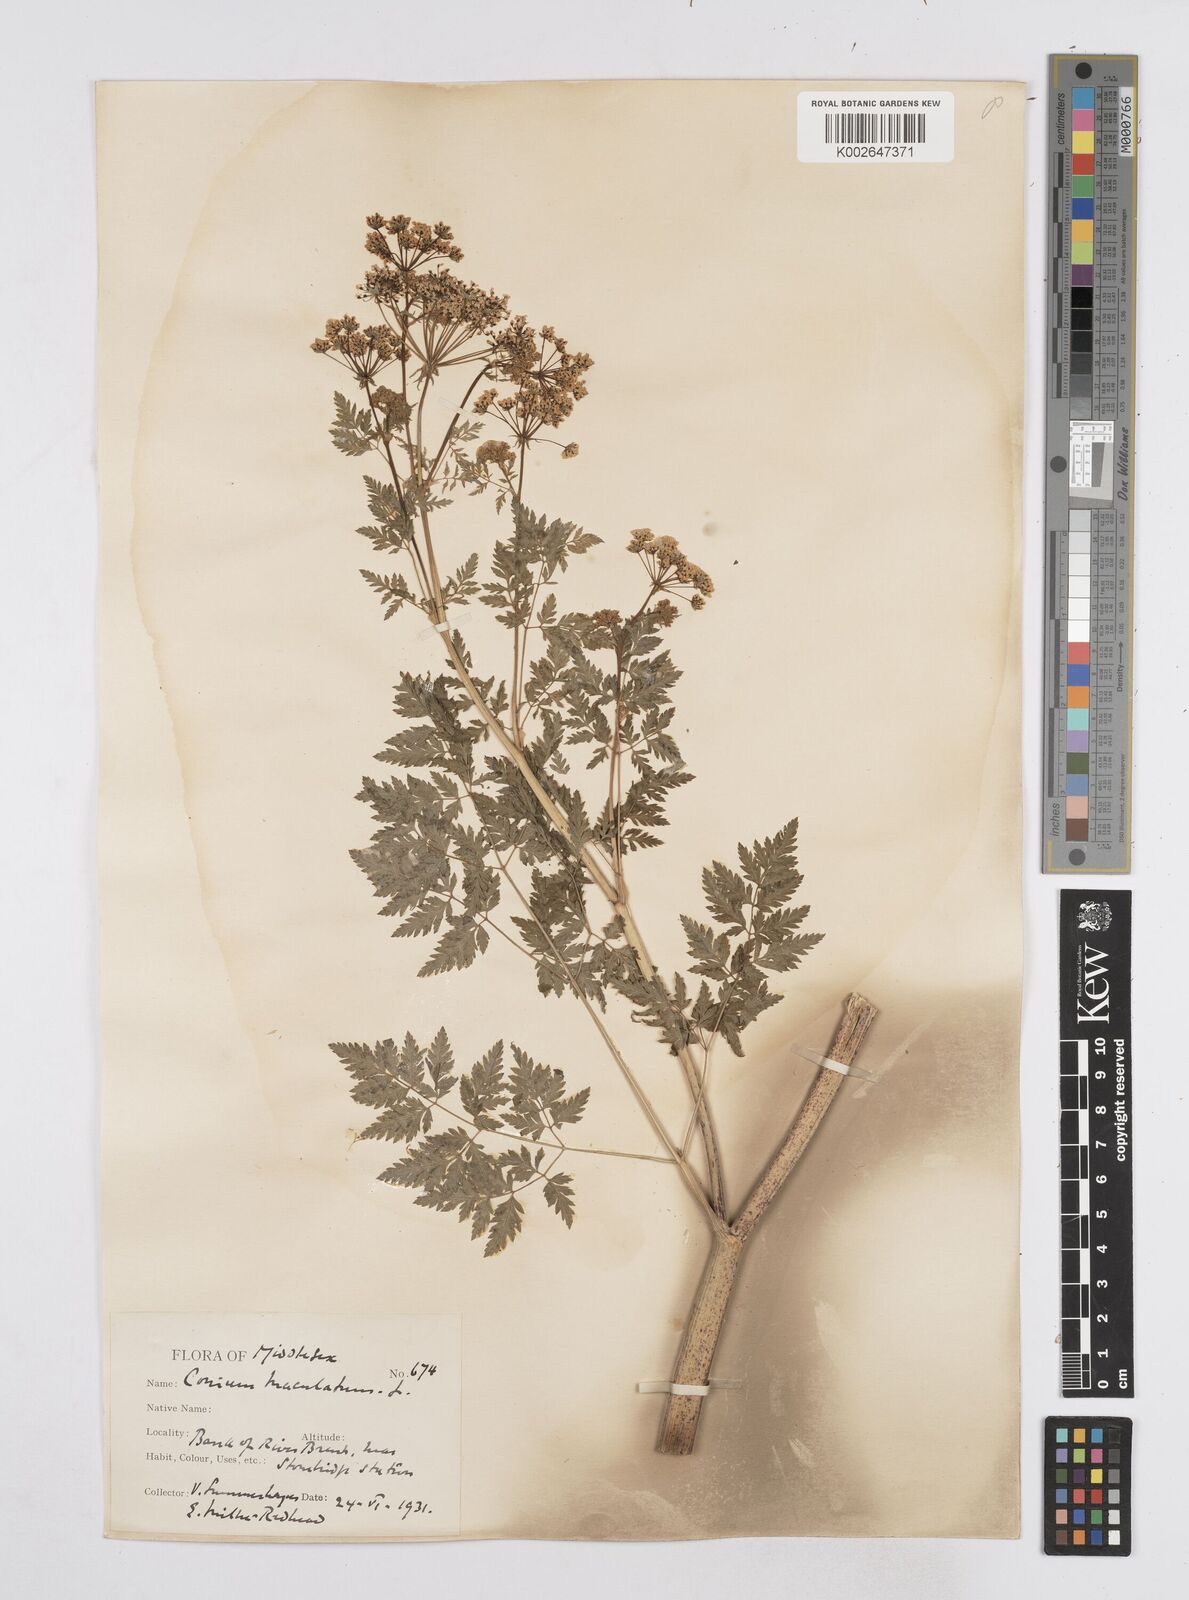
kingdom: Plantae
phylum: Tracheophyta
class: Magnoliopsida
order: Apiales
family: Apiaceae
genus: Conium
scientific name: Conium maculatum
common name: Hemlock
